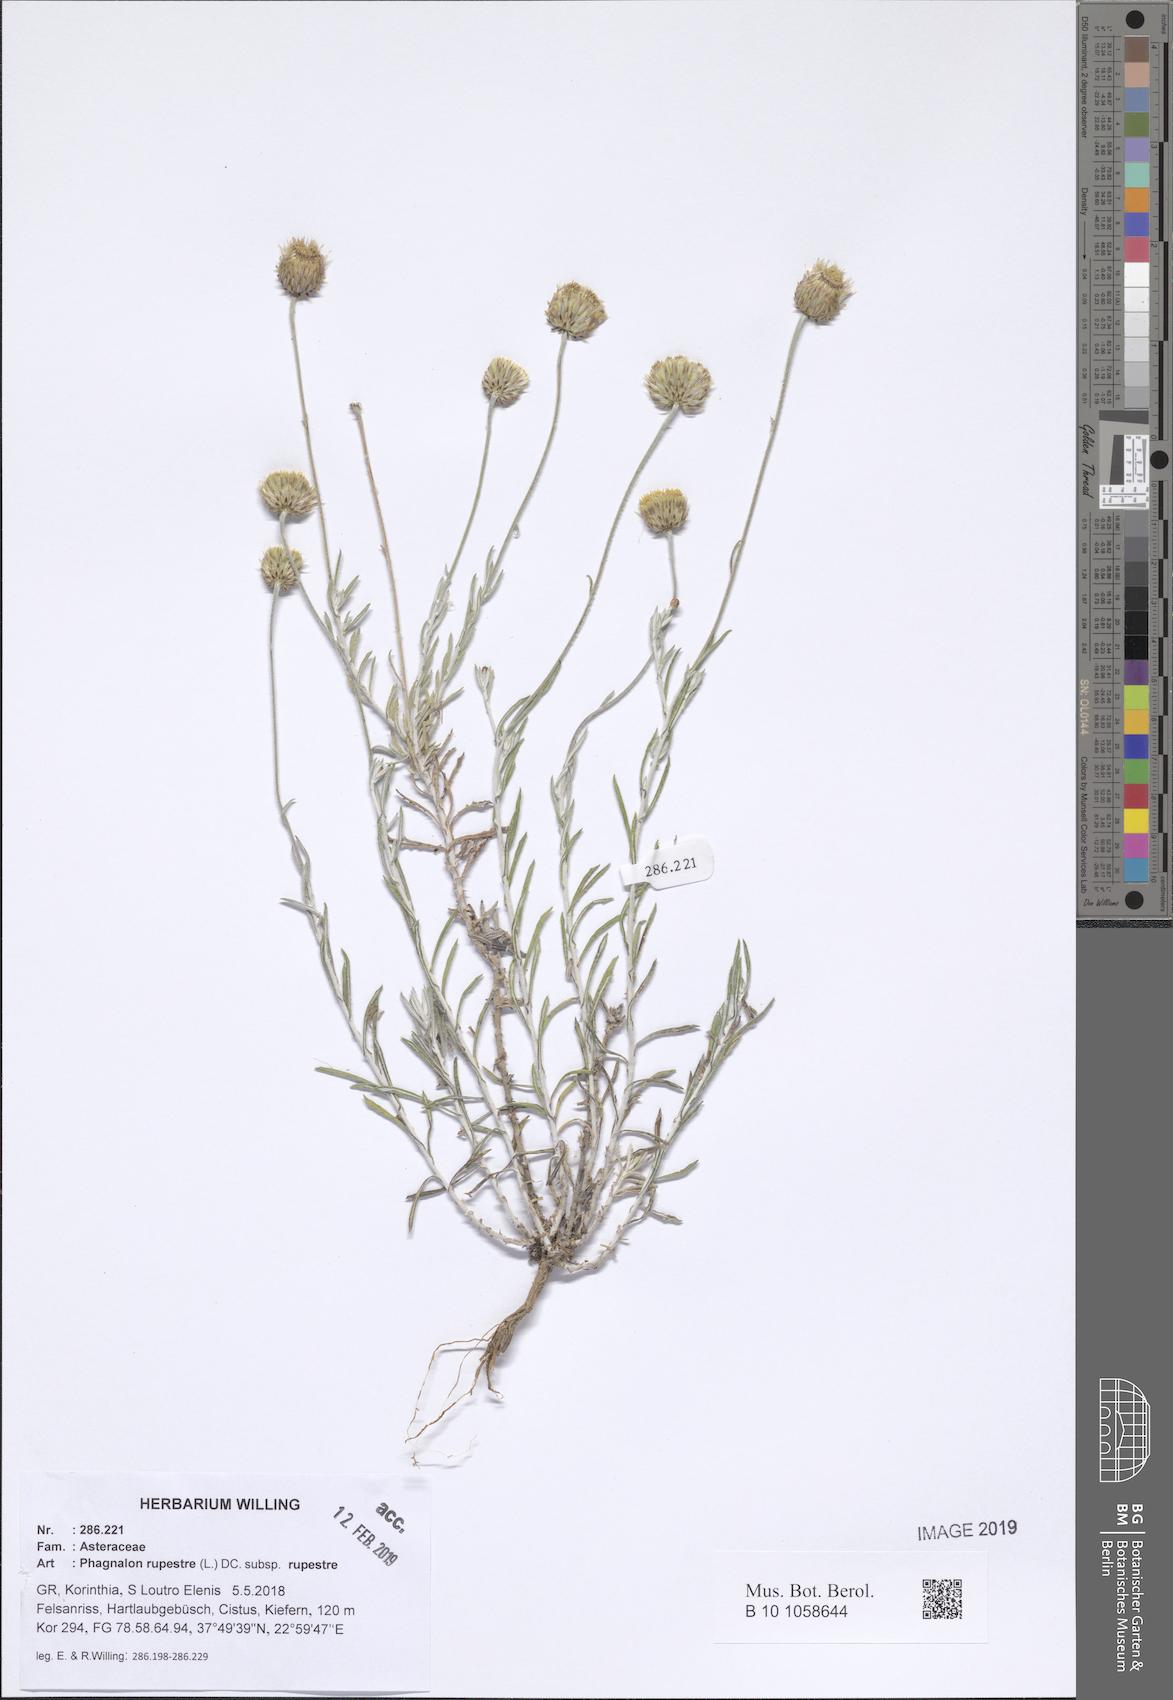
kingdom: Plantae
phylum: Tracheophyta
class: Magnoliopsida
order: Asterales
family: Asteraceae
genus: Phagnalon
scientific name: Phagnalon rupestre
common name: Rock phagnalon
